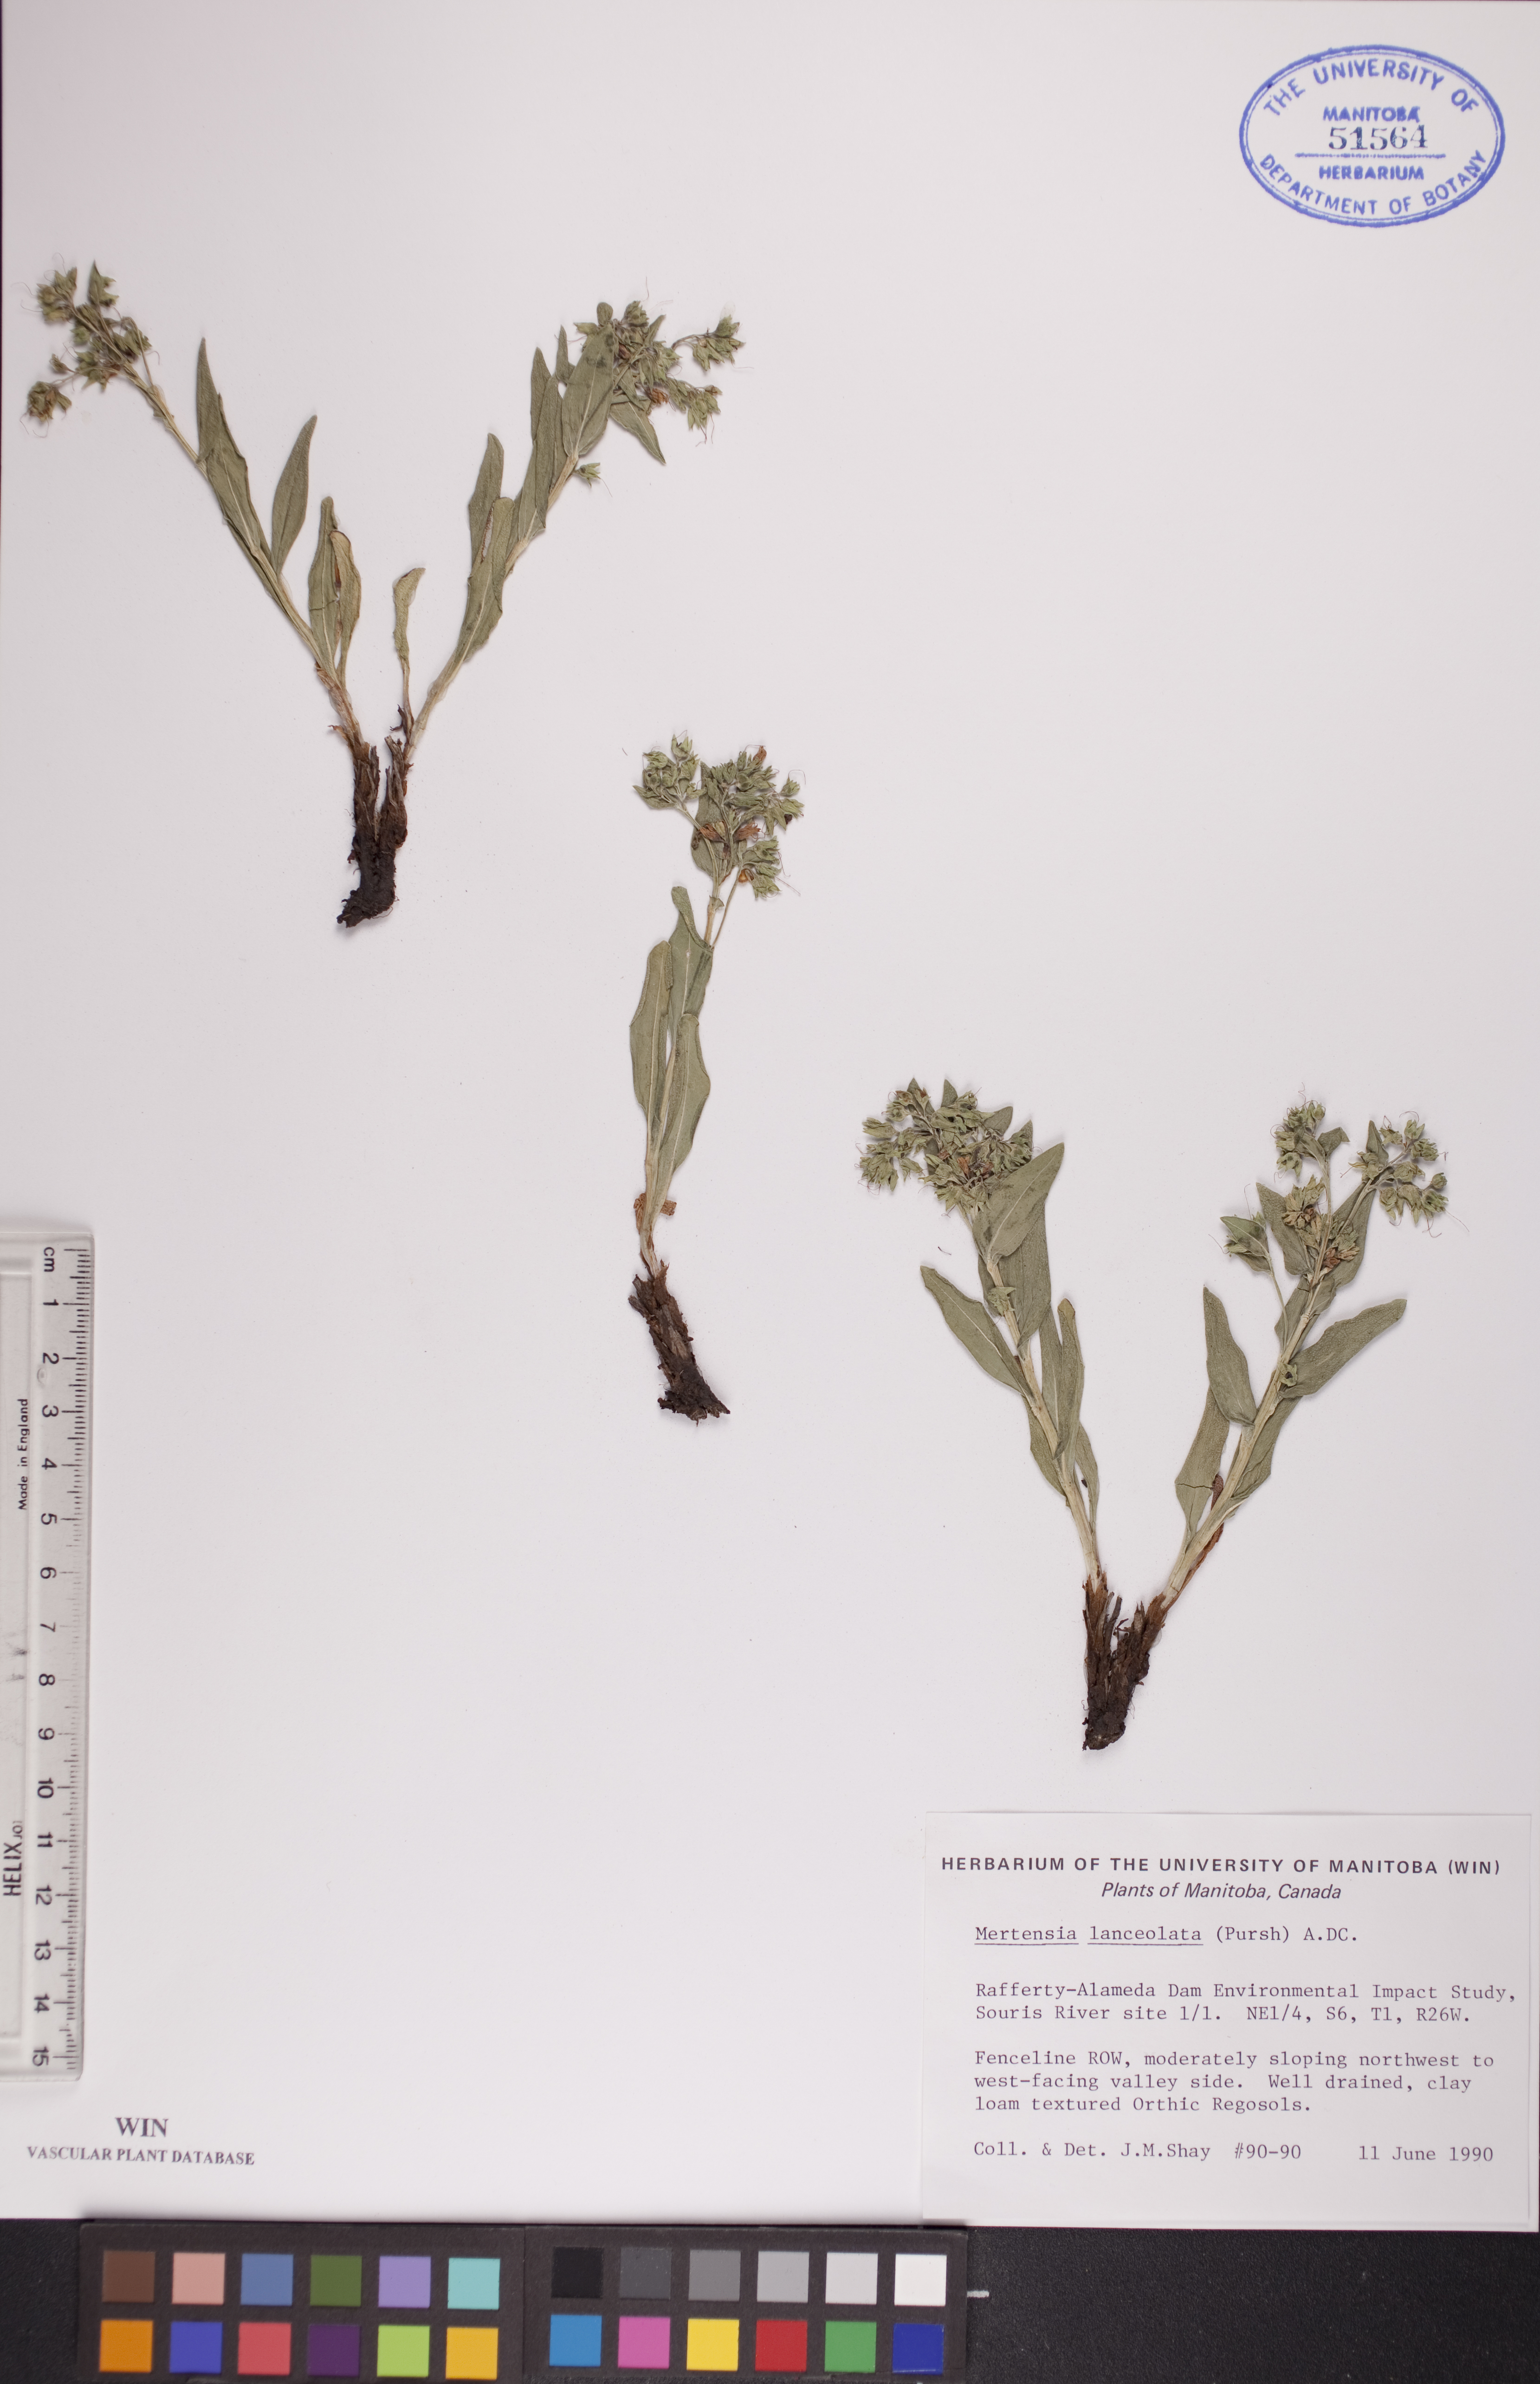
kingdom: Plantae
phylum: Tracheophyta
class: Magnoliopsida
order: Boraginales
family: Boraginaceae
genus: Mertensia
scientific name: Mertensia lanceolata
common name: Lance-leaved bluebells
